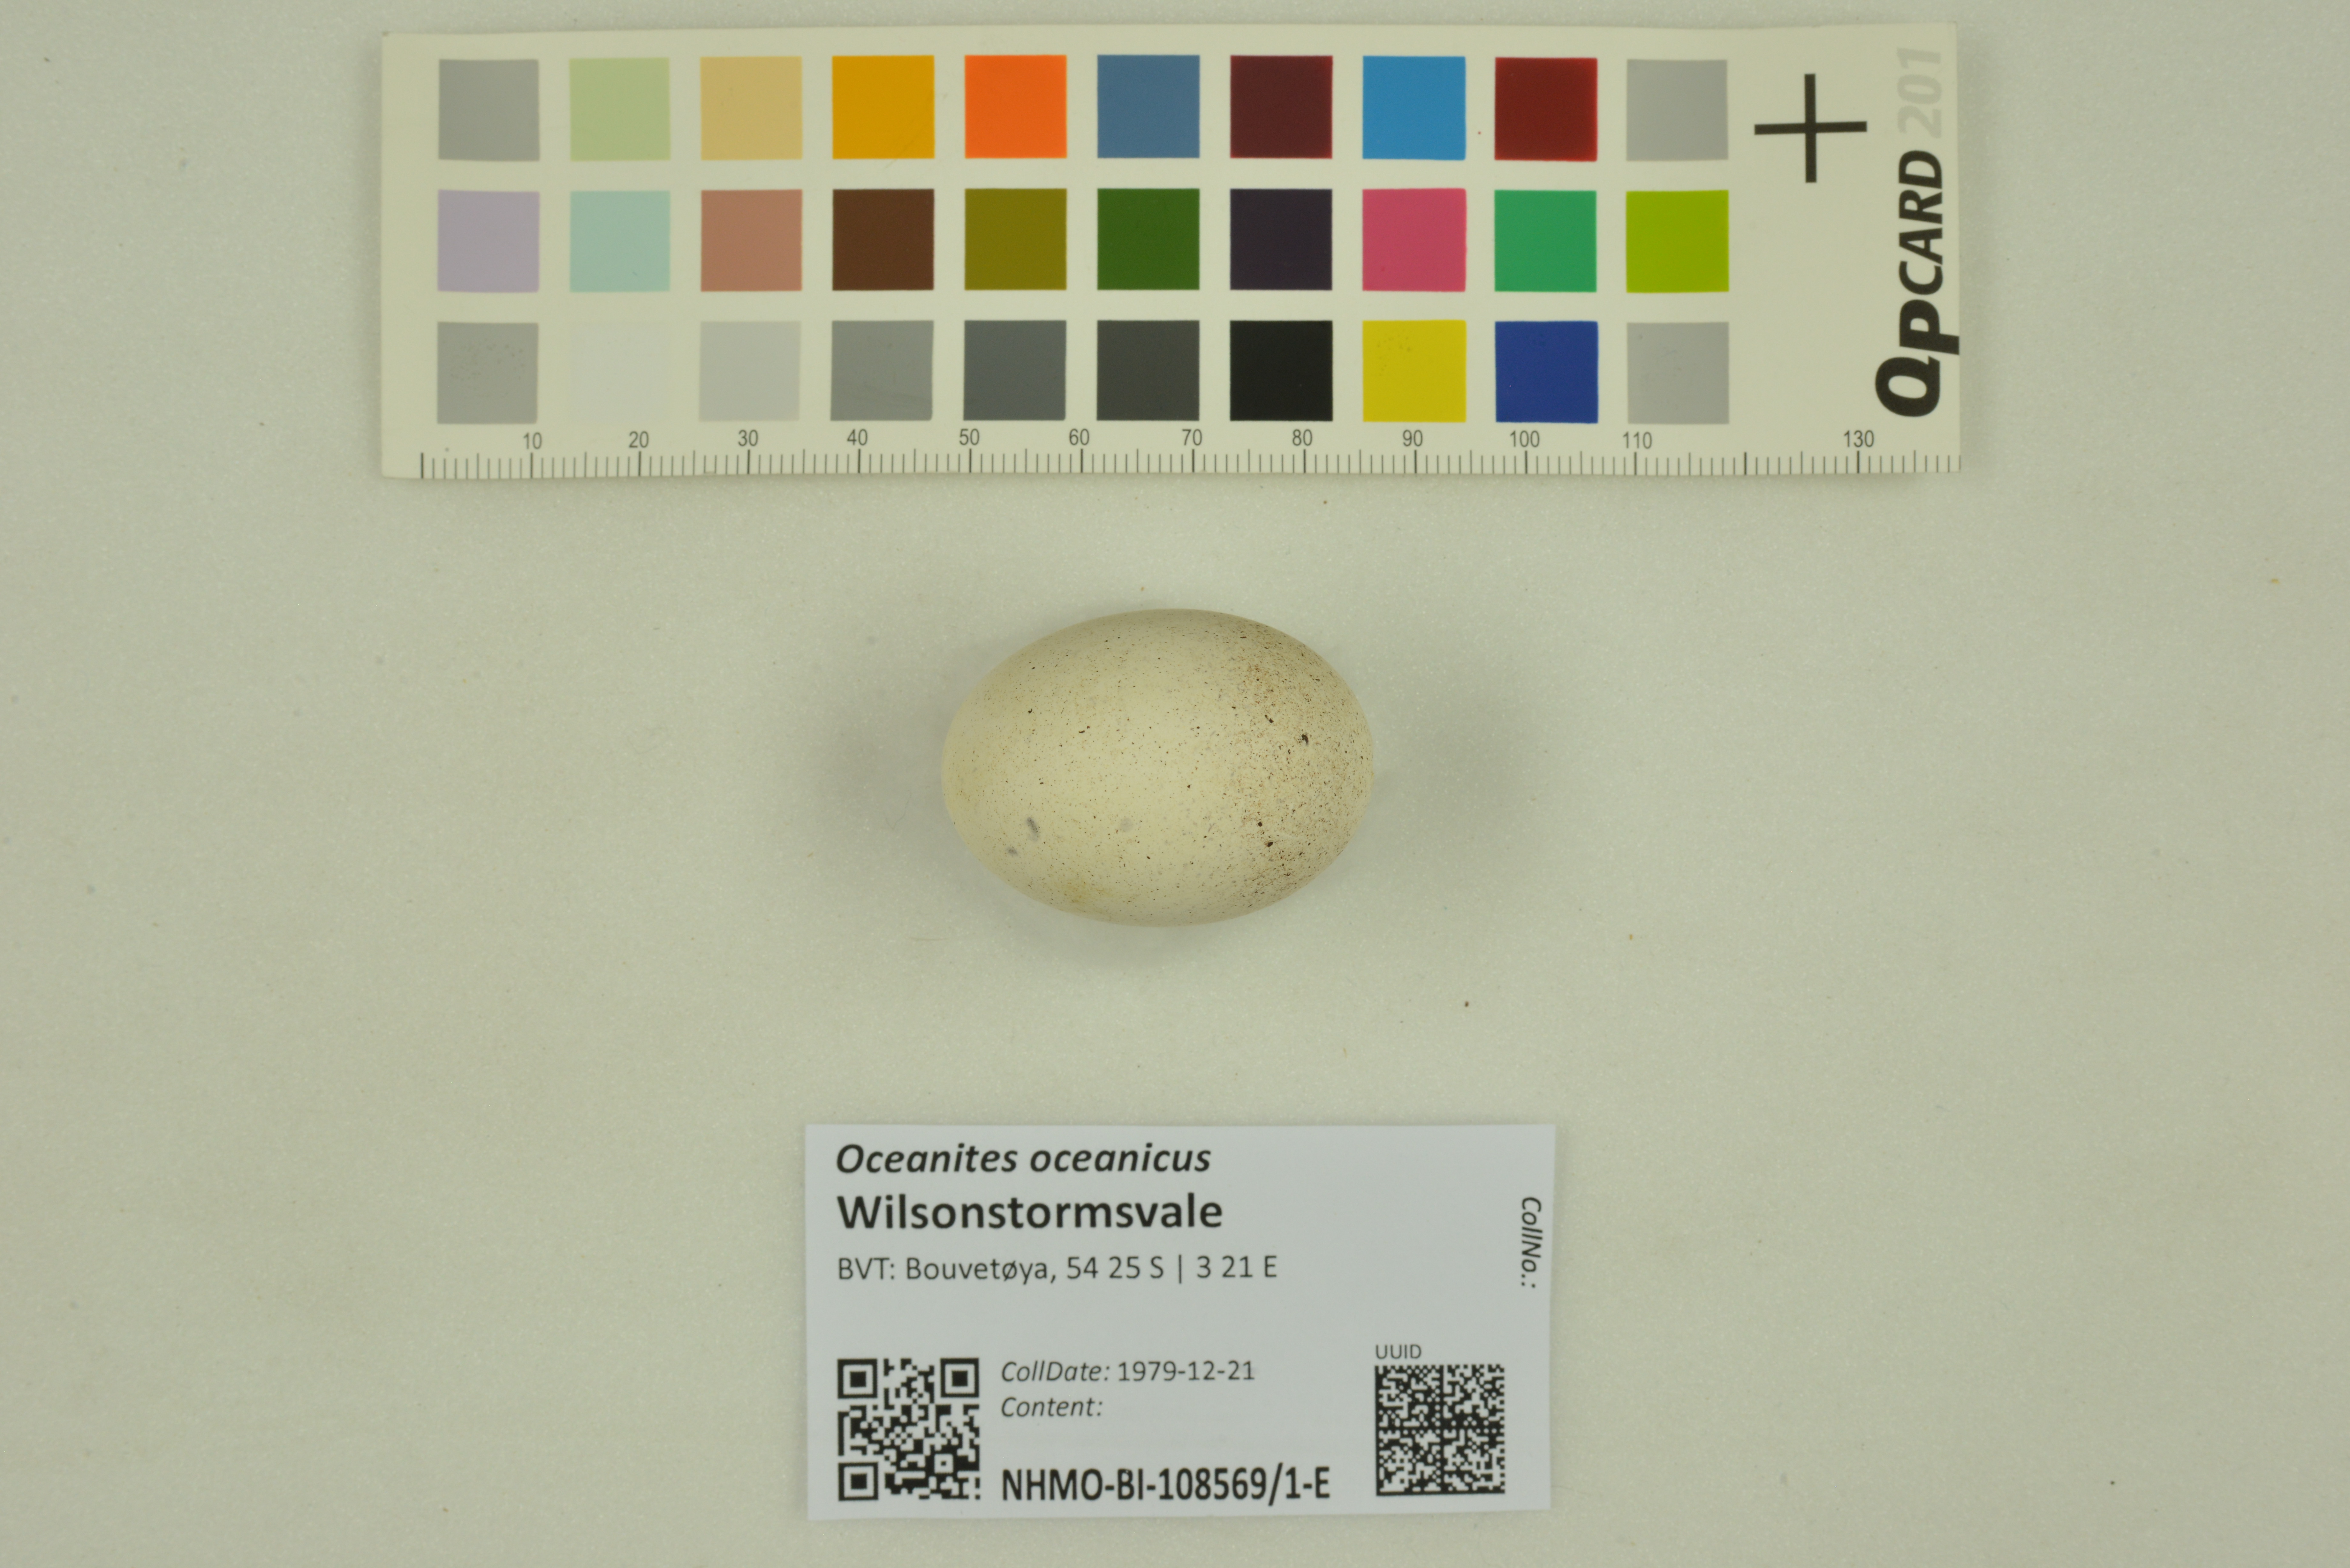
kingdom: Animalia
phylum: Chordata
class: Aves
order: Procellariiformes
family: Hydrobatidae
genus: Oceanites
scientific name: Oceanites oceanicus
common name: Wilson's storm petrel
